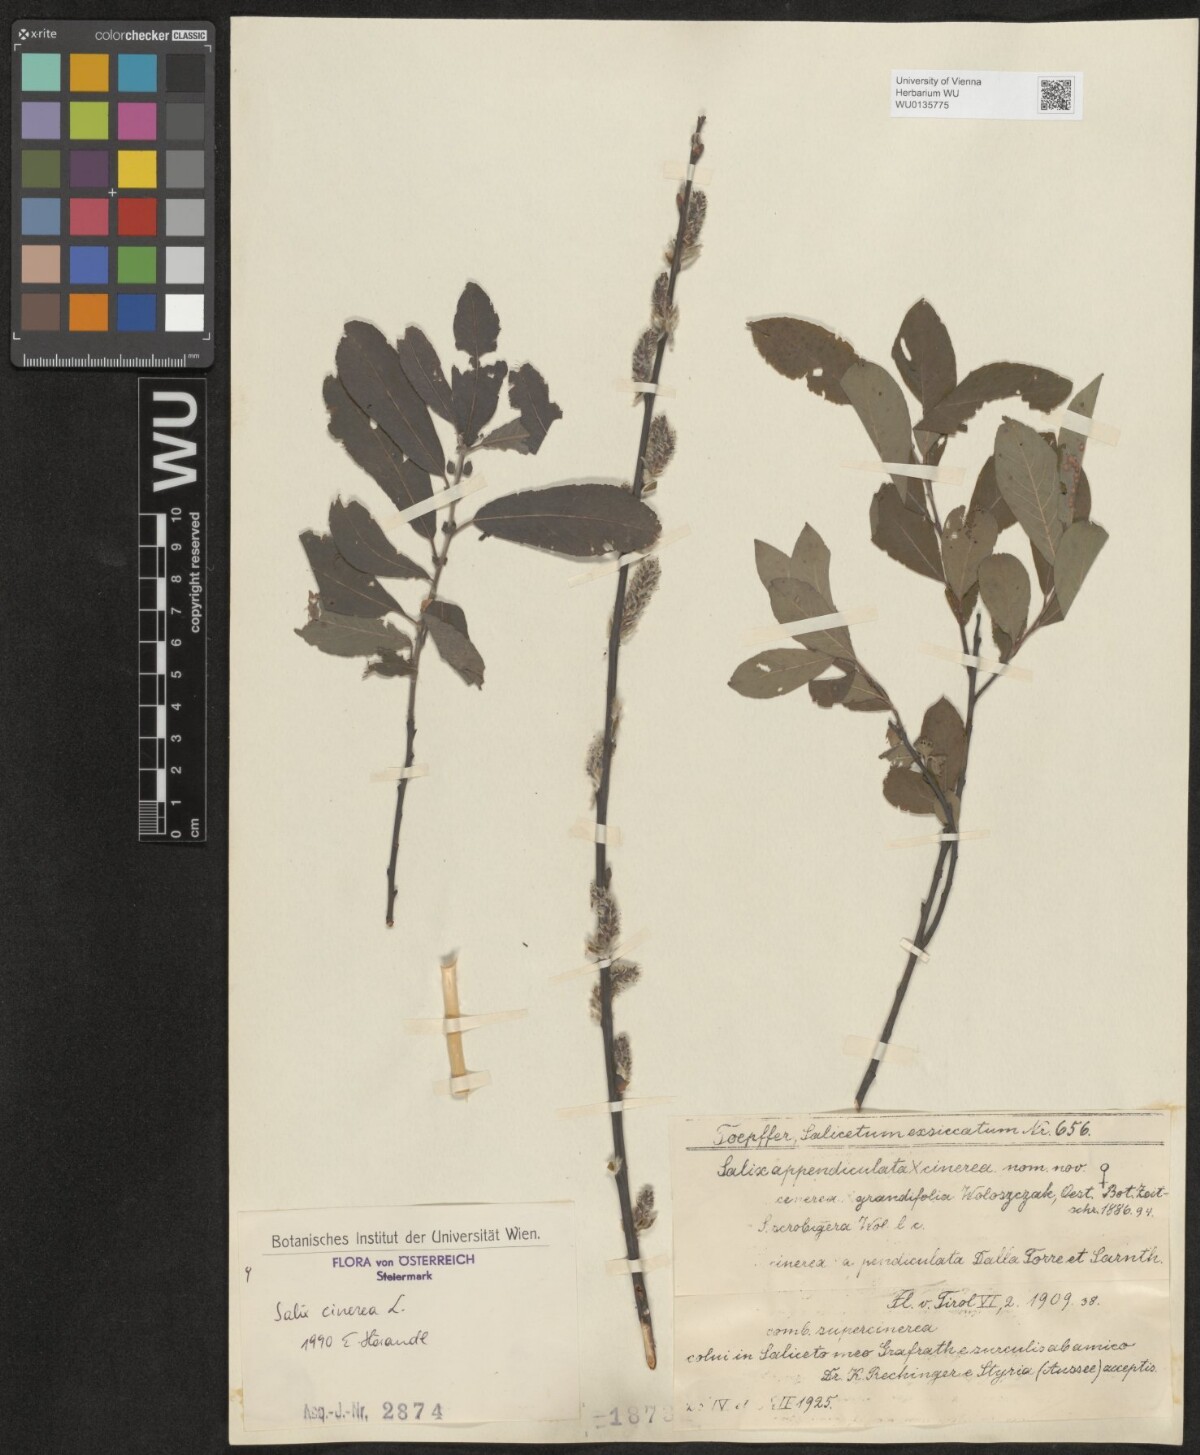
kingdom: Plantae
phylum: Tracheophyta
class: Magnoliopsida
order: Malpighiales
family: Salicaceae
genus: Salix
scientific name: Salix cinerea
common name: Common sallow
